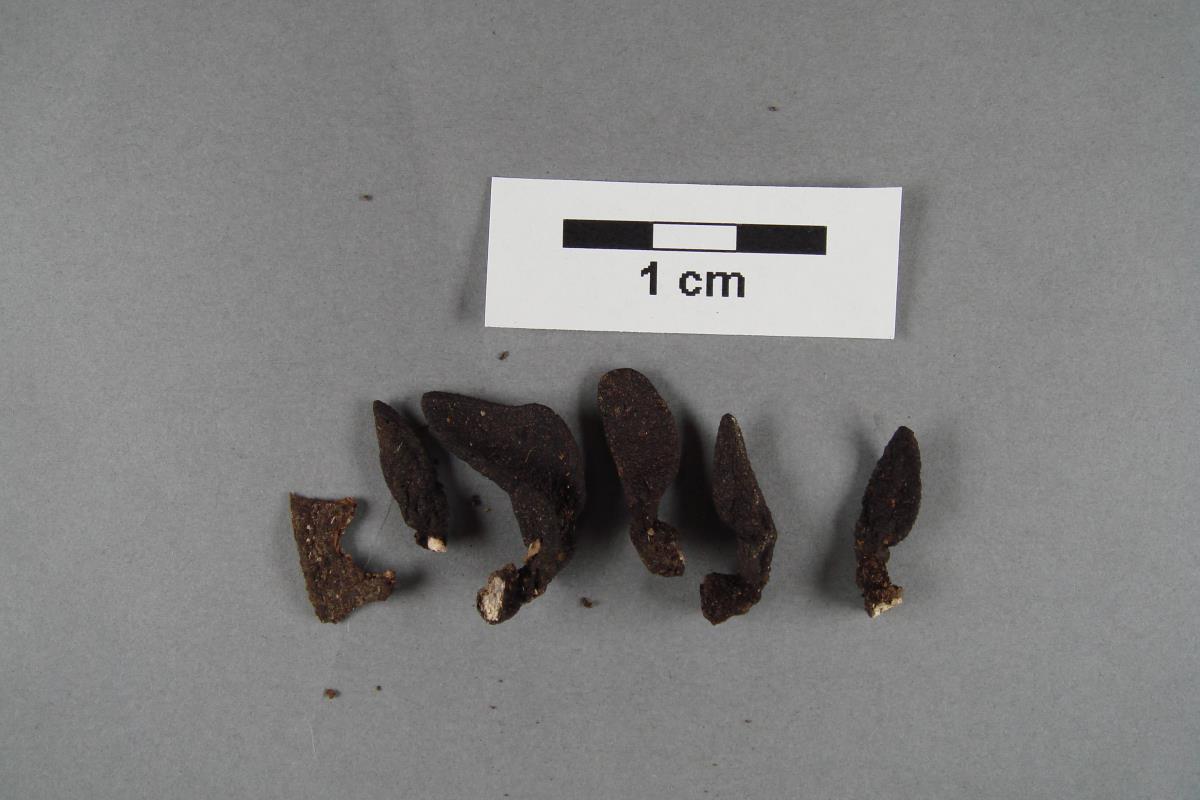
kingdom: Fungi
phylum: Ascomycota
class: Sordariomycetes
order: Xylariales
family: Xylariaceae
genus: Xylaria
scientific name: Xylaria castorea
